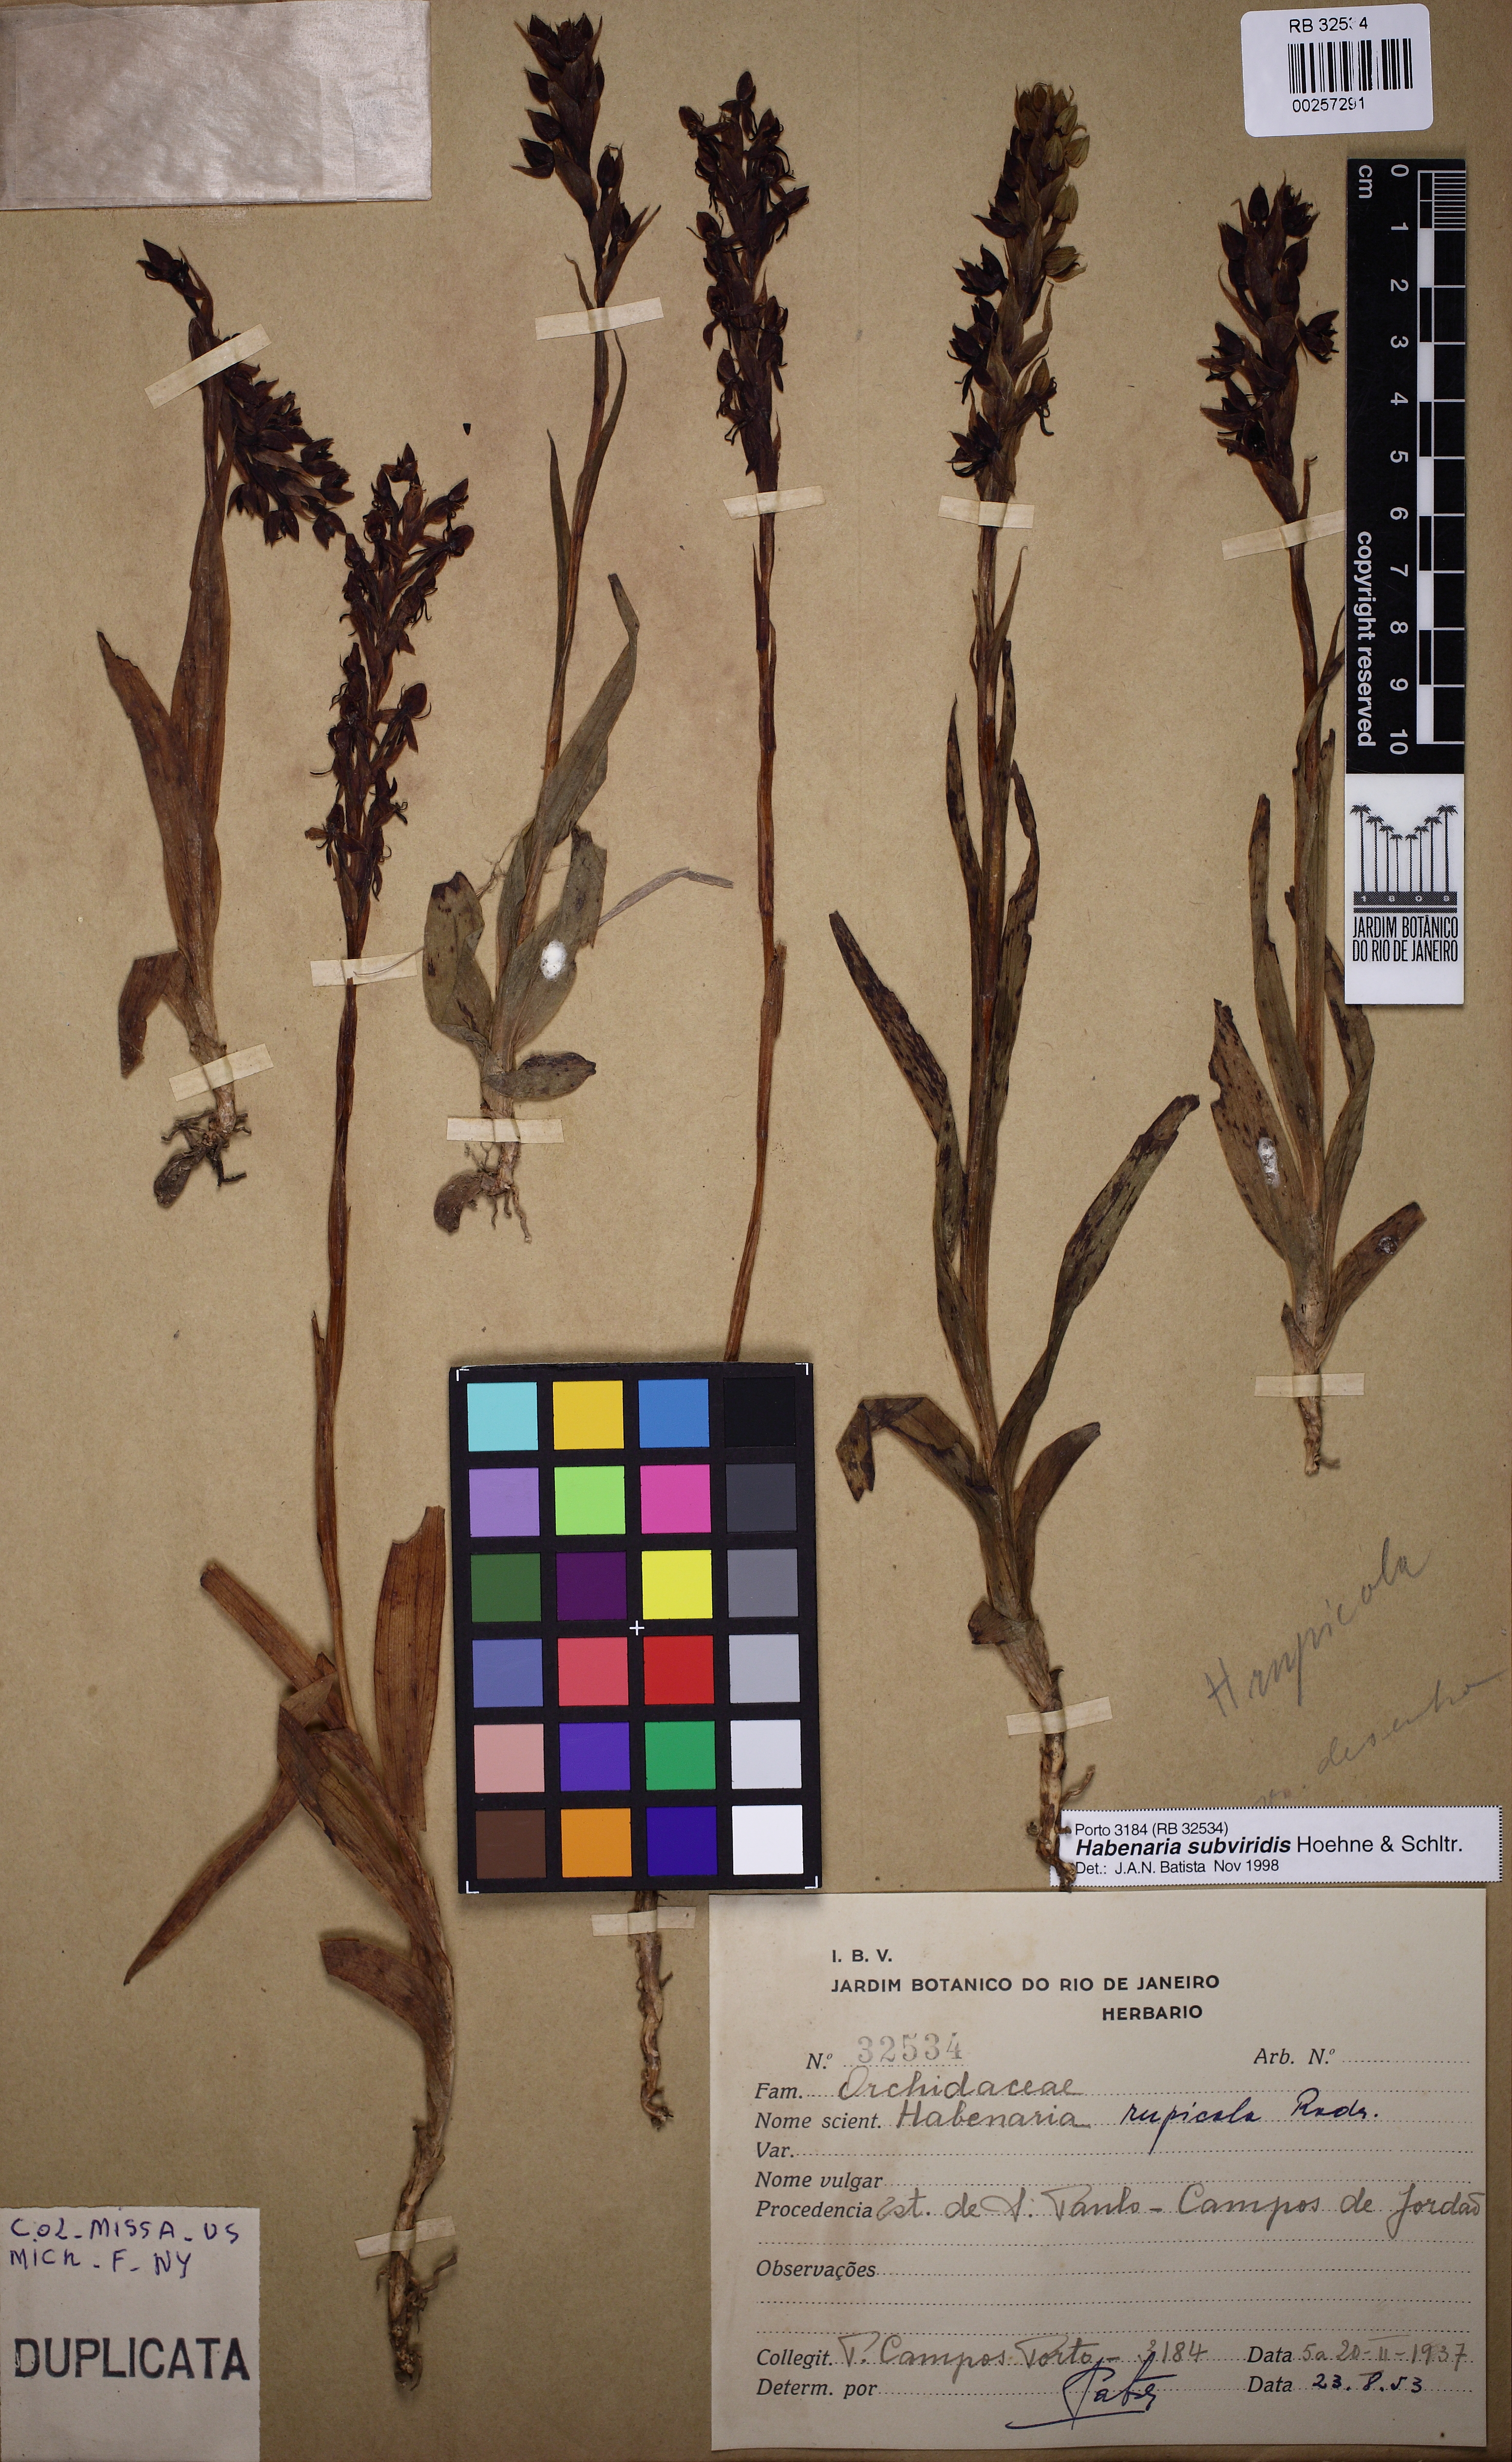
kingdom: Plantae
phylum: Tracheophyta
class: Liliopsida
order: Asparagales
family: Orchidaceae
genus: Habenaria
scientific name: Habenaria subviridis
